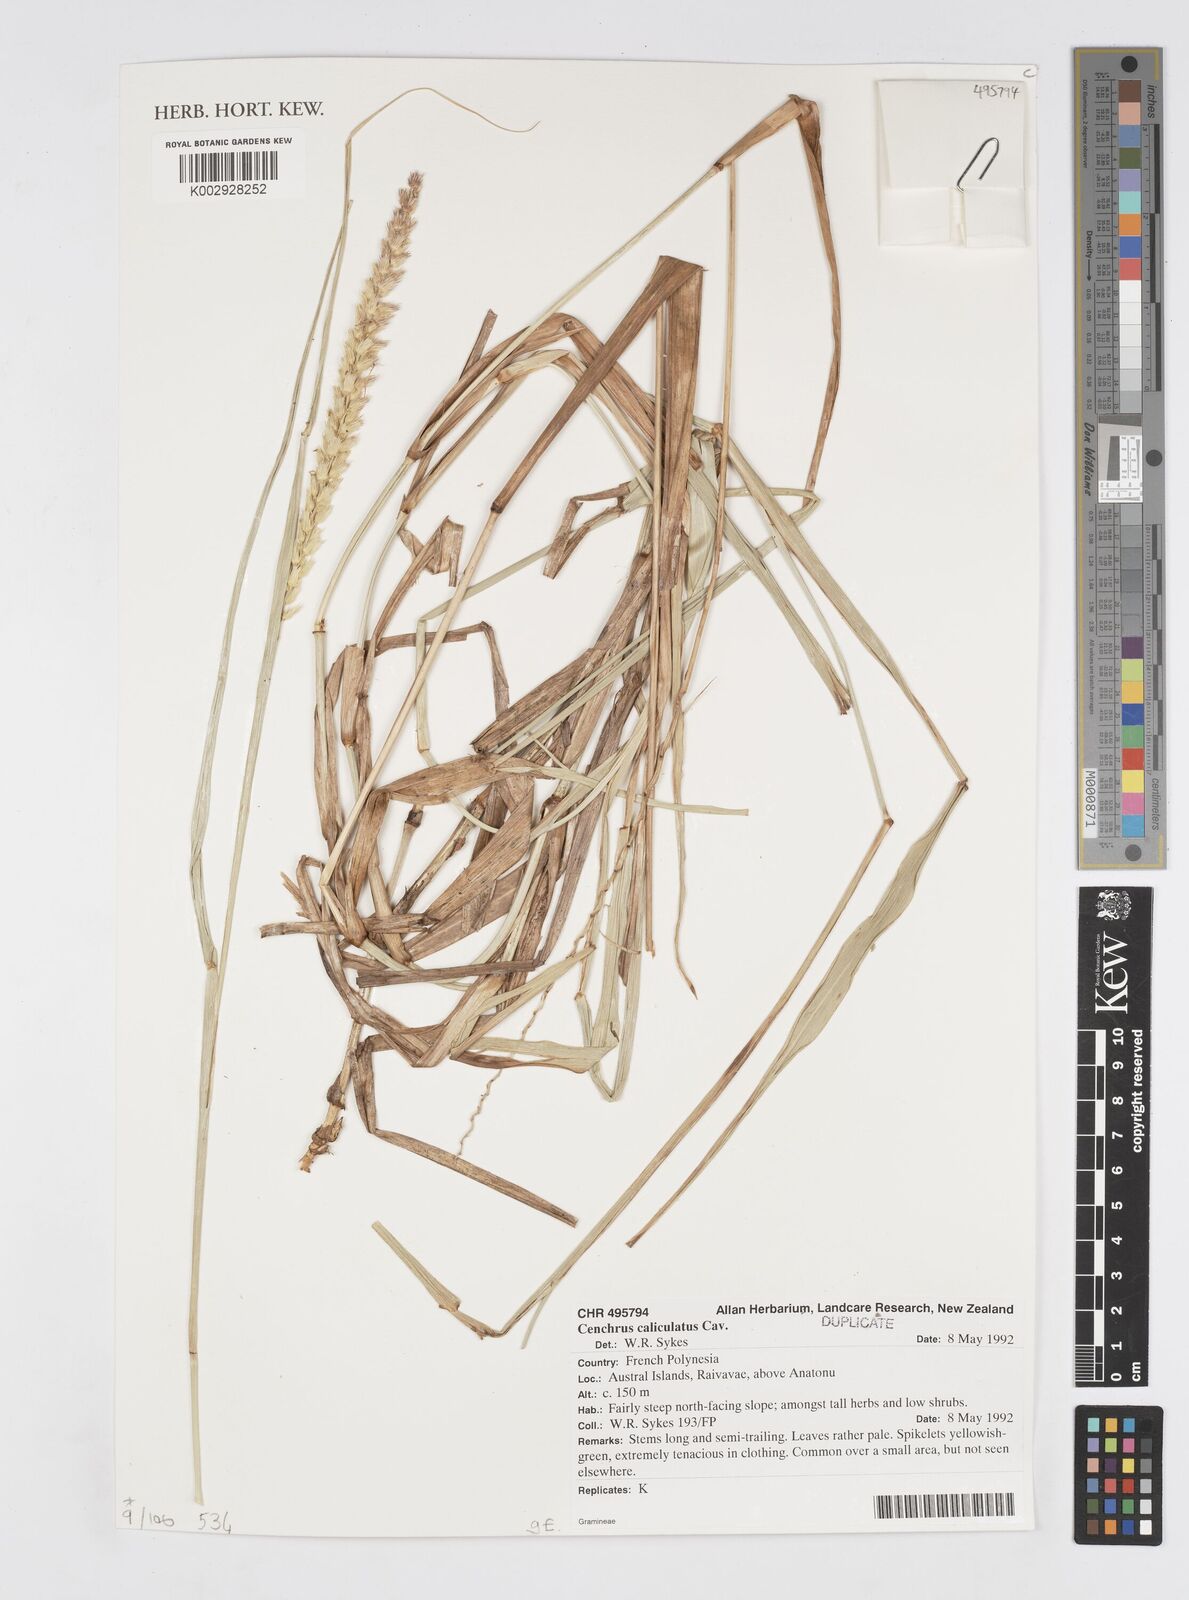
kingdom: Plantae
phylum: Tracheophyta
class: Liliopsida
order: Poales
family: Poaceae
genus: Cenchrus
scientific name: Cenchrus caliculatus
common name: Large bur grass
